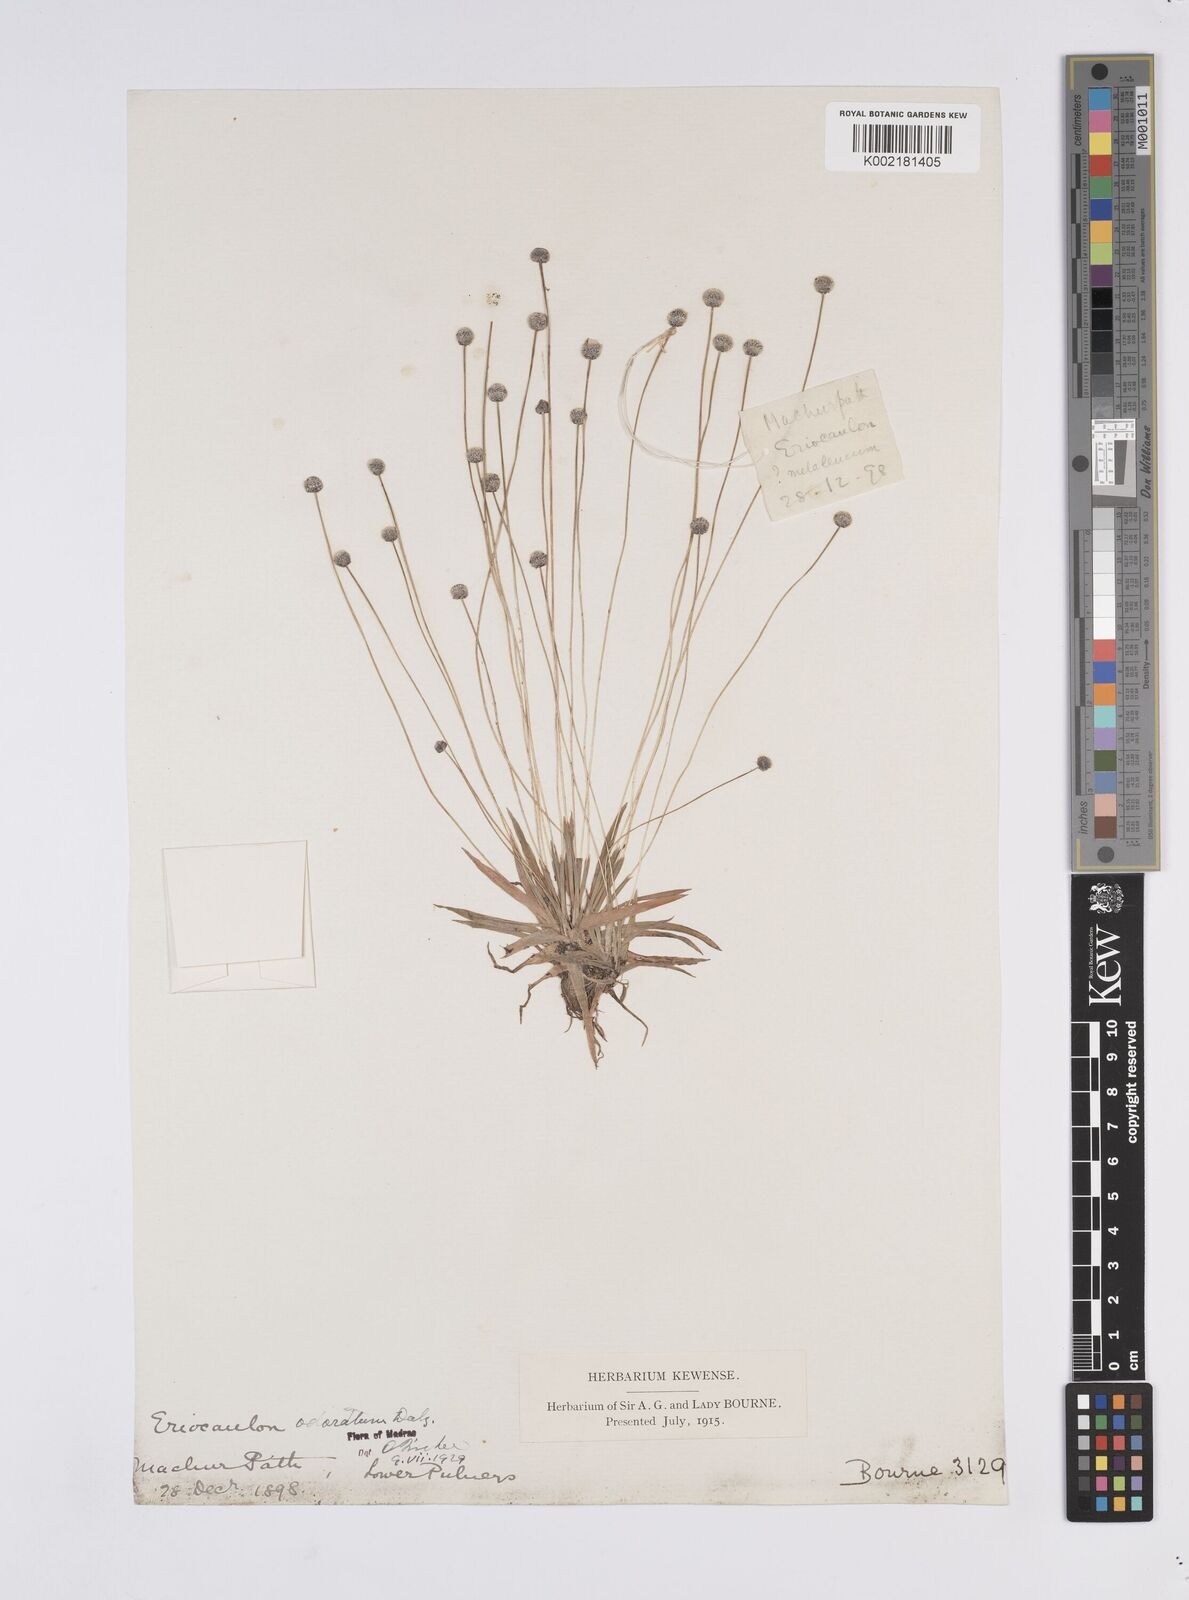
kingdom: Plantae
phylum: Tracheophyta
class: Liliopsida
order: Poales
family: Eriocaulaceae
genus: Eriocaulon
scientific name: Eriocaulon odoratum
